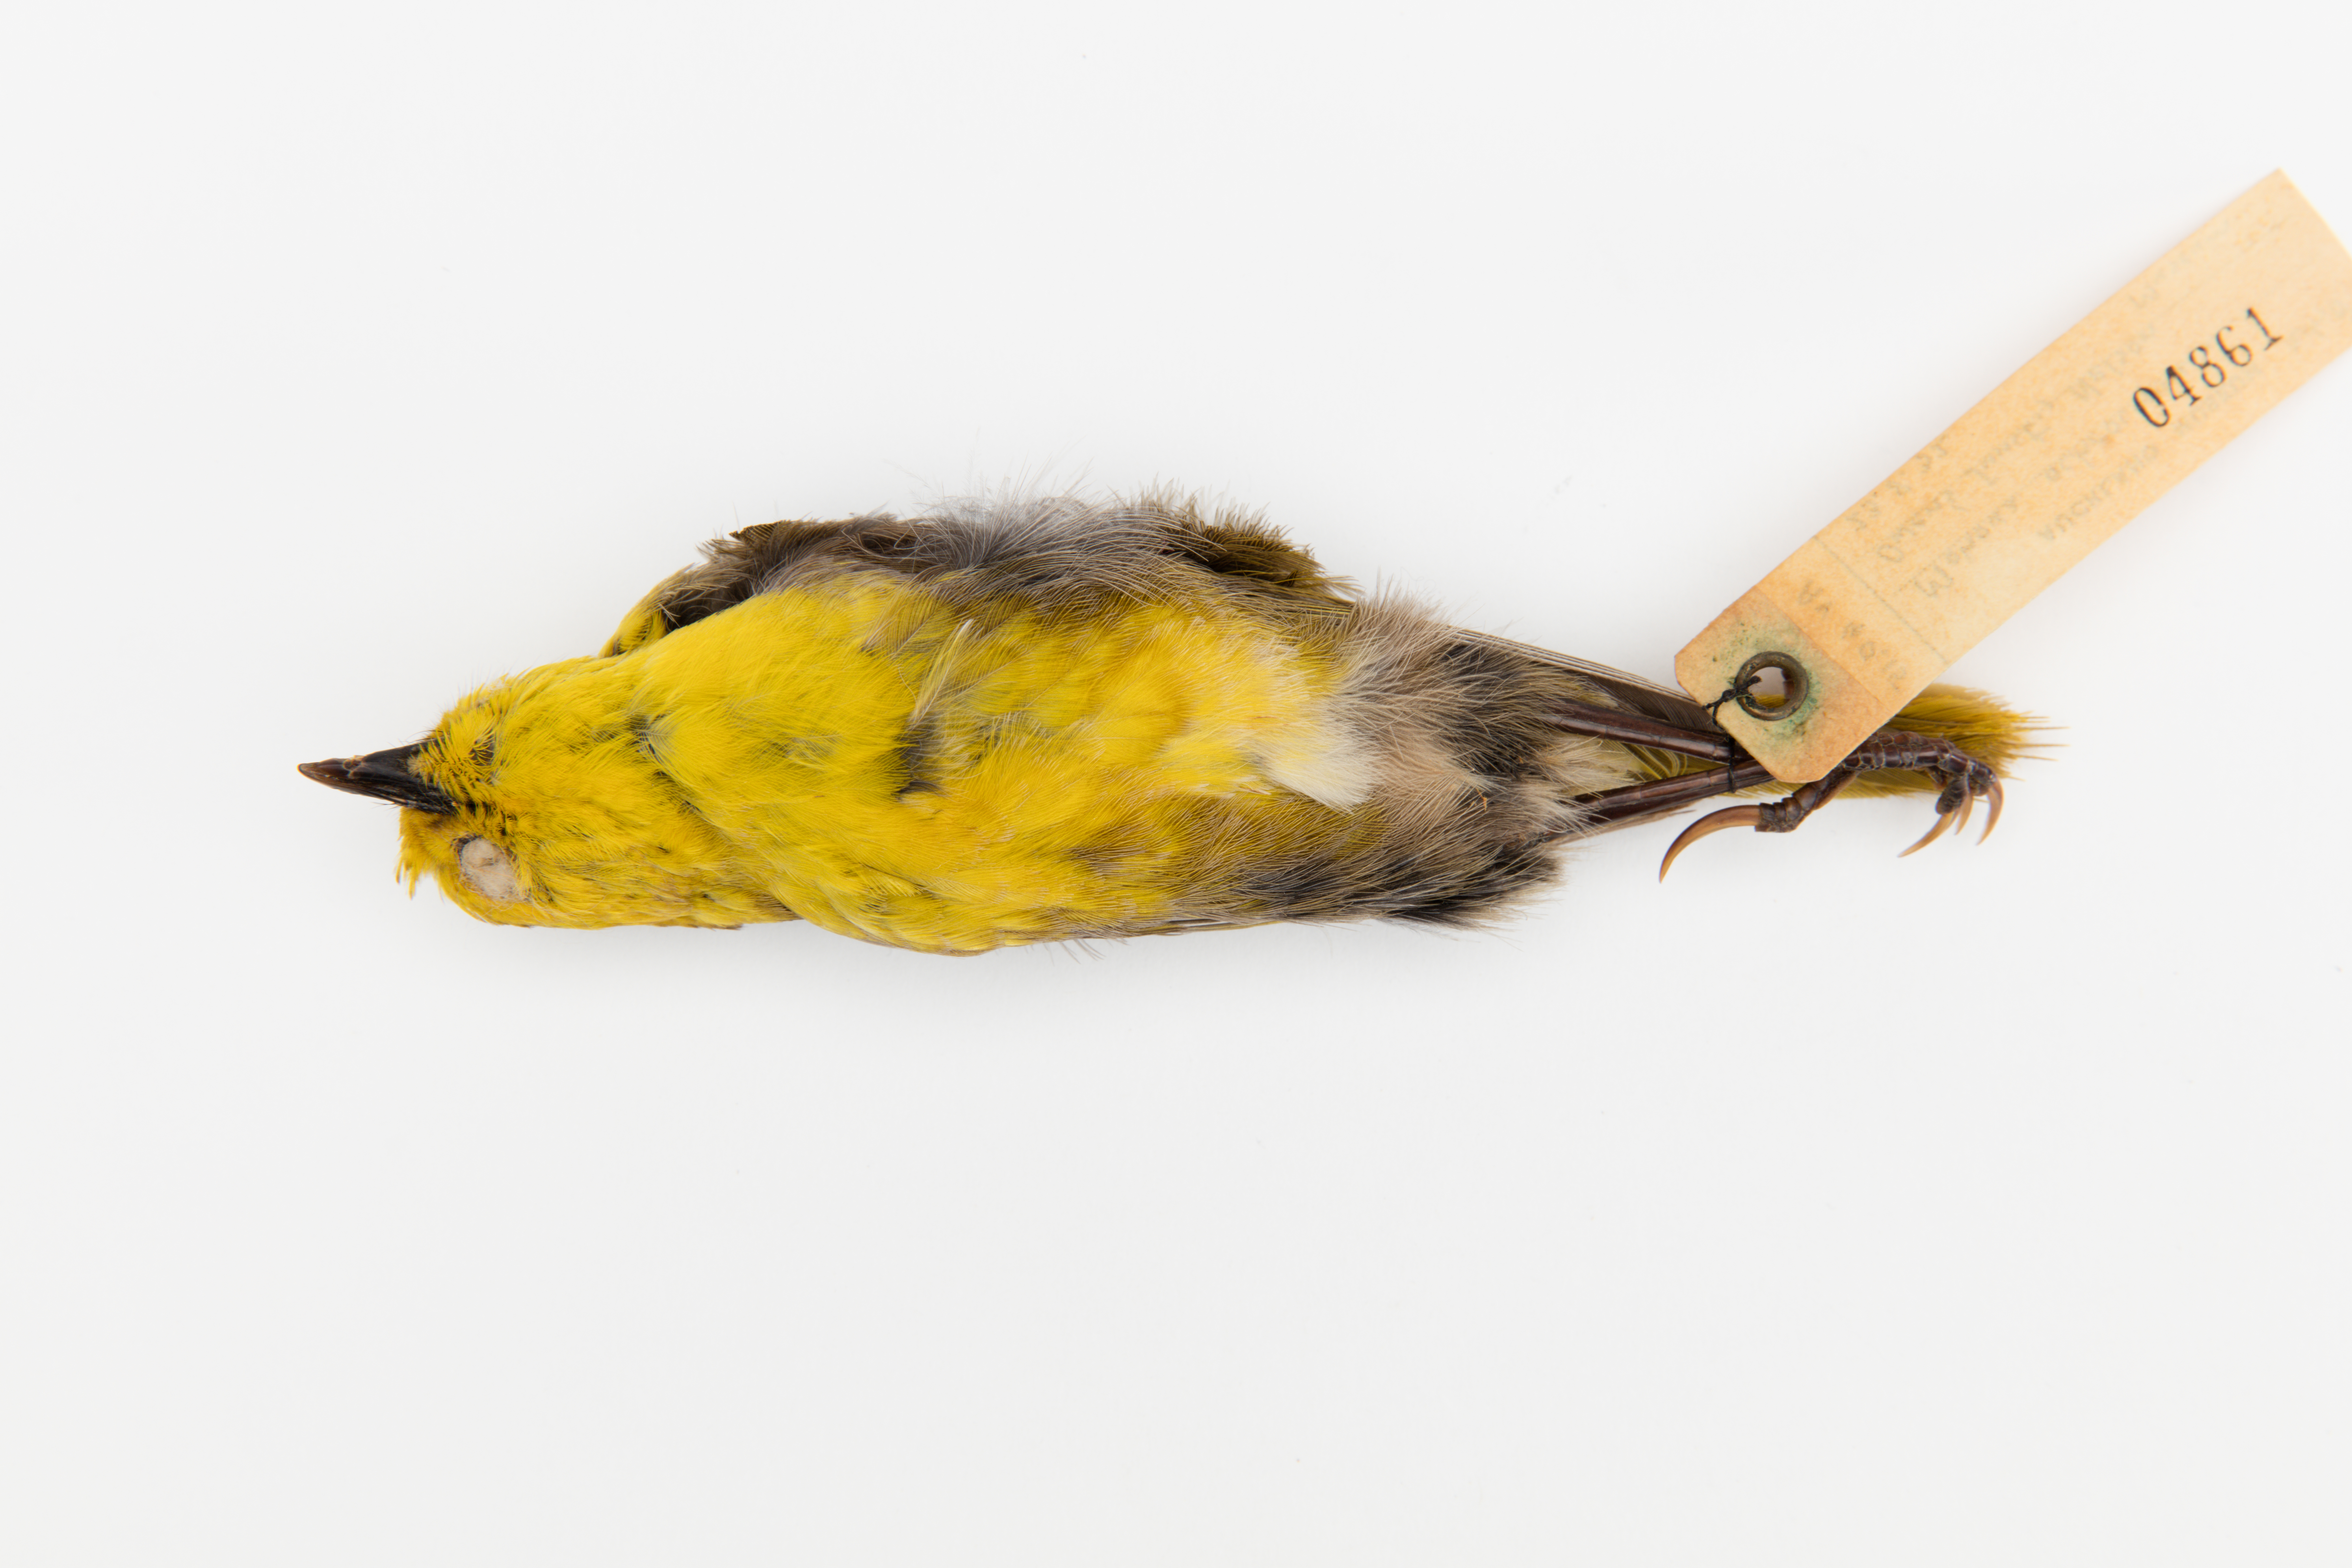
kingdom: Animalia
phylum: Chordata
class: Aves
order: Passeriformes
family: Acanthizidae
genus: Mohoua
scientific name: Mohoua ochrocephala
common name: Yellowhead
